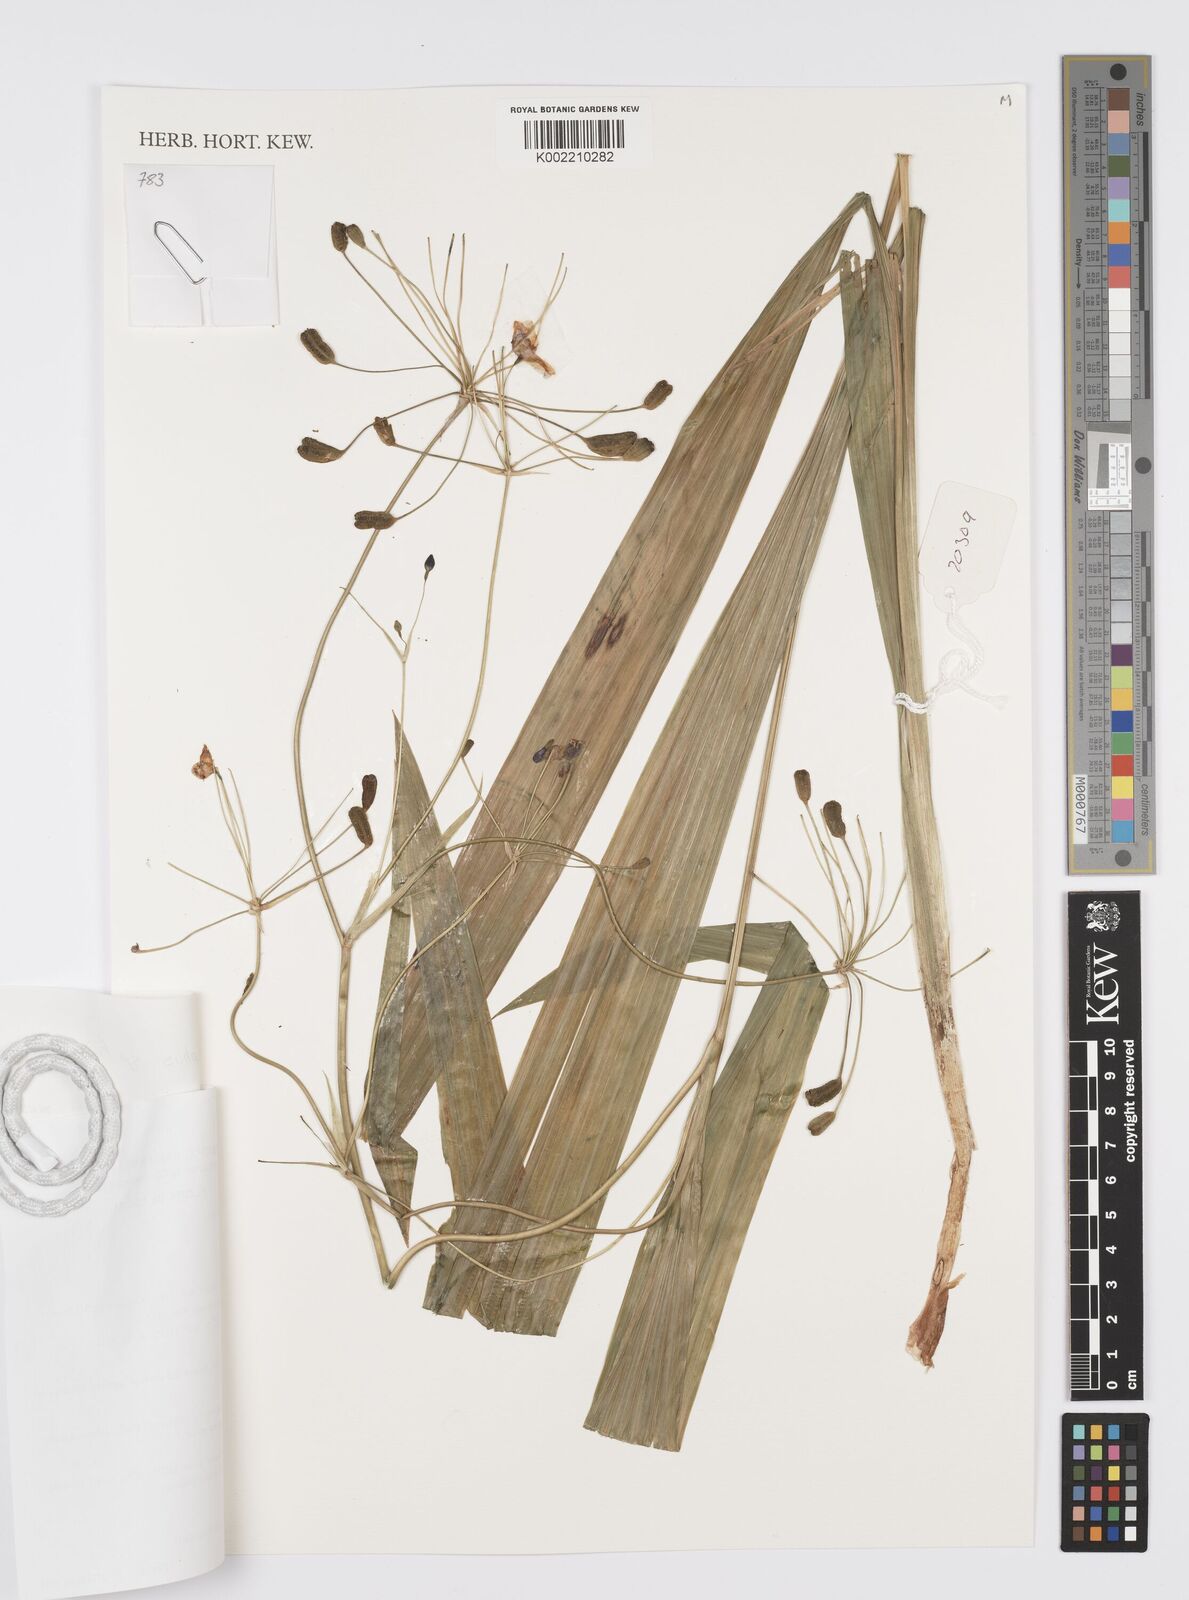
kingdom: Plantae
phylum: Tracheophyta
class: Liliopsida
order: Asparagales
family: Iridaceae
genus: Ennealophus
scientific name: Ennealophus
